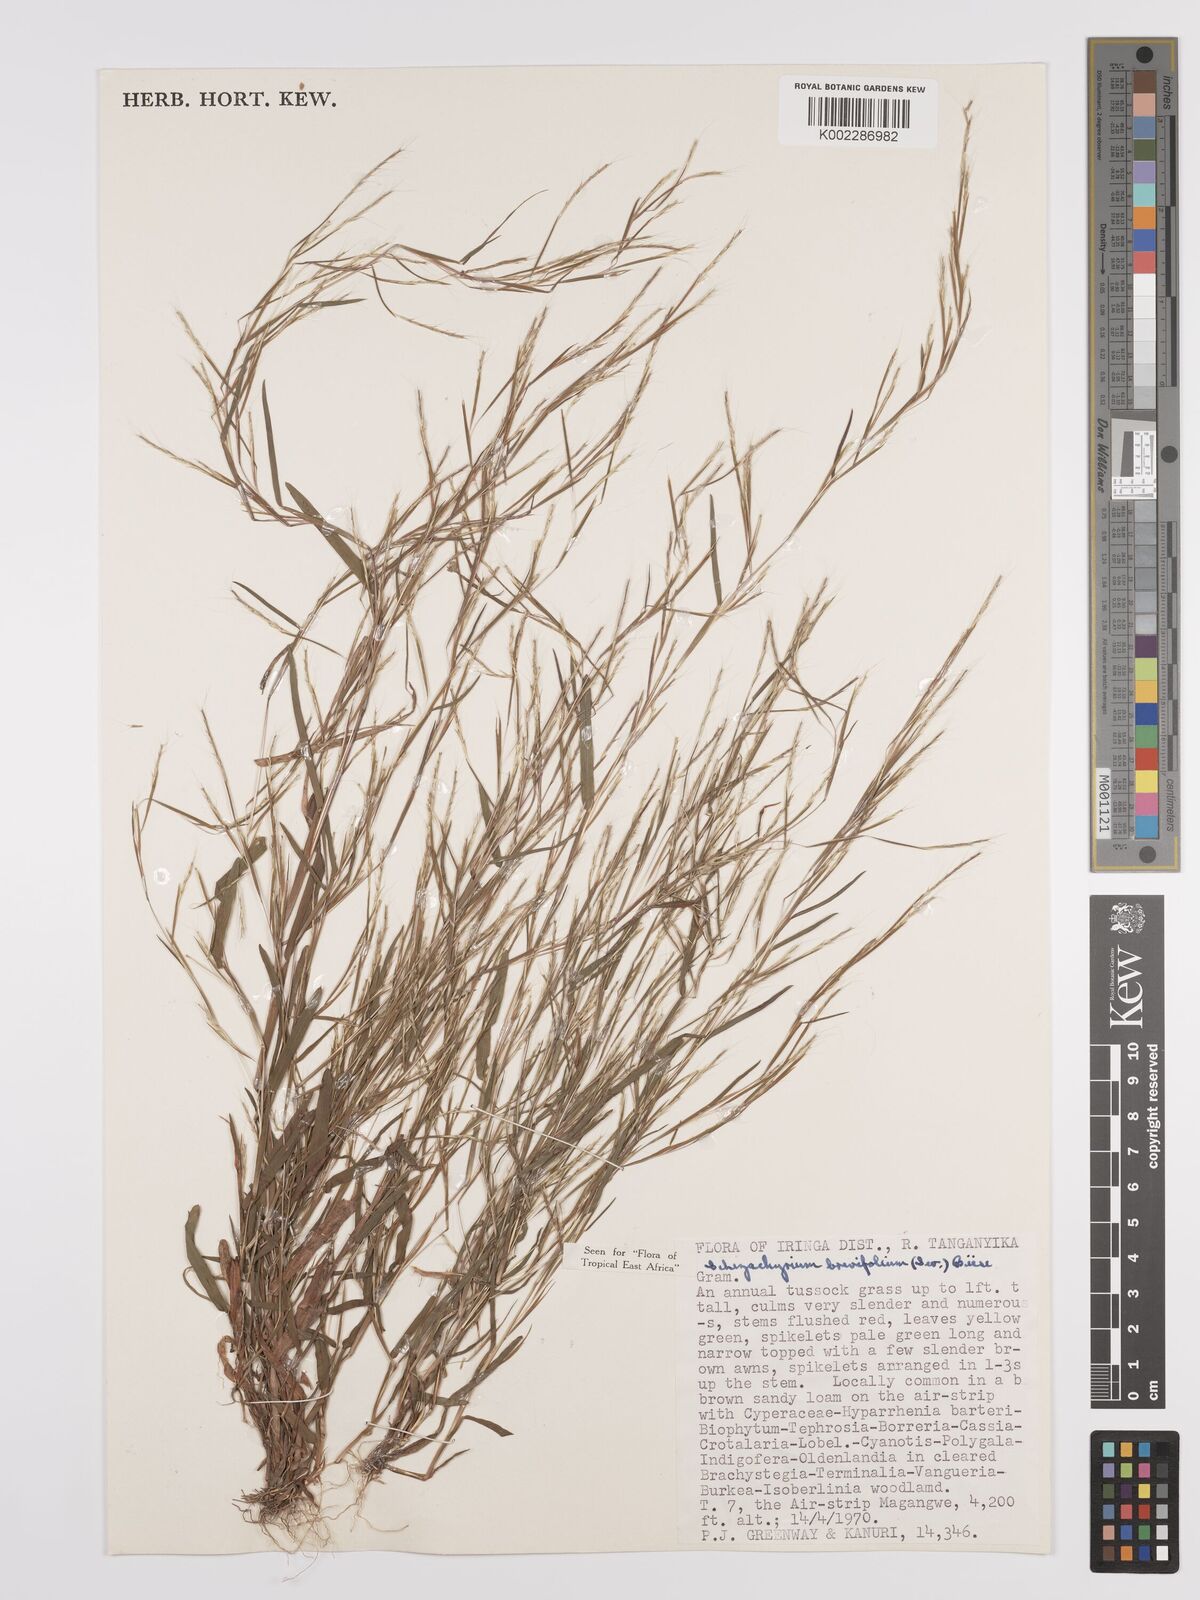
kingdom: Plantae
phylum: Tracheophyta
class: Liliopsida
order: Poales
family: Poaceae
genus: Schizachyrium
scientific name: Schizachyrium brevifolium
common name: Serillo dulce
